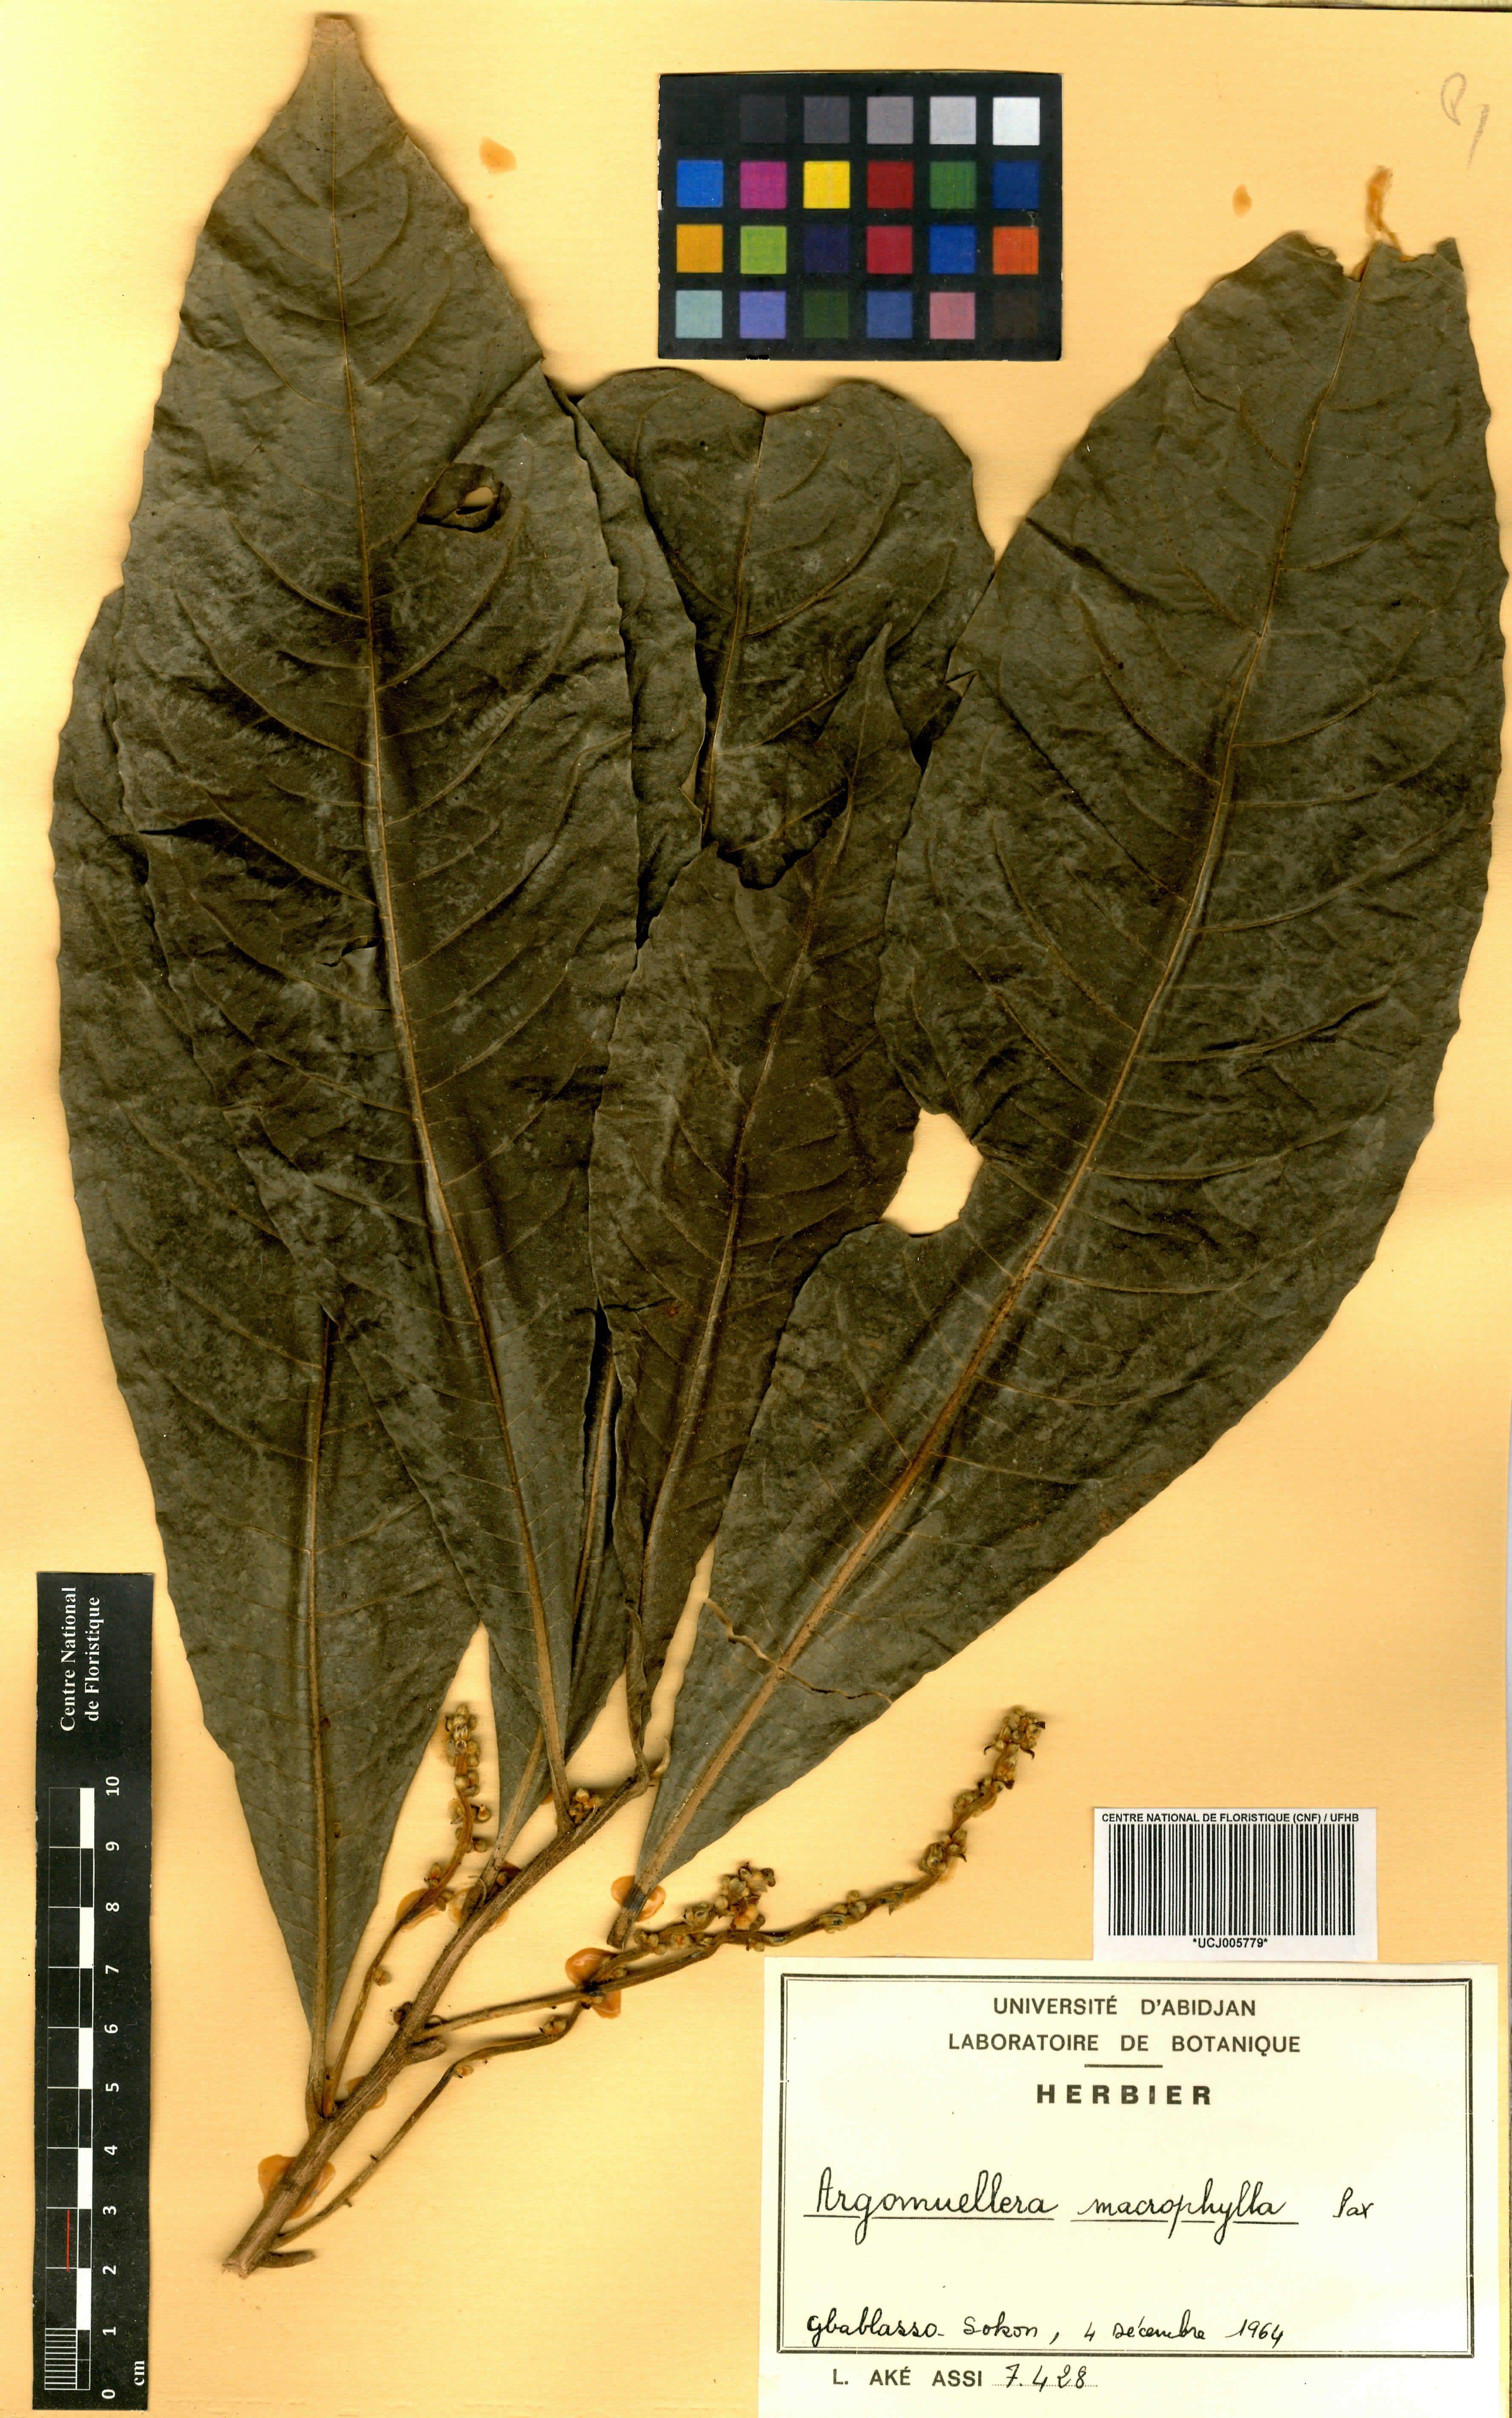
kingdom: Plantae
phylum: Tracheophyta
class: Magnoliopsida
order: Malpighiales
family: Euphorbiaceae
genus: Argomuellera
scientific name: Argomuellera macrophylla
